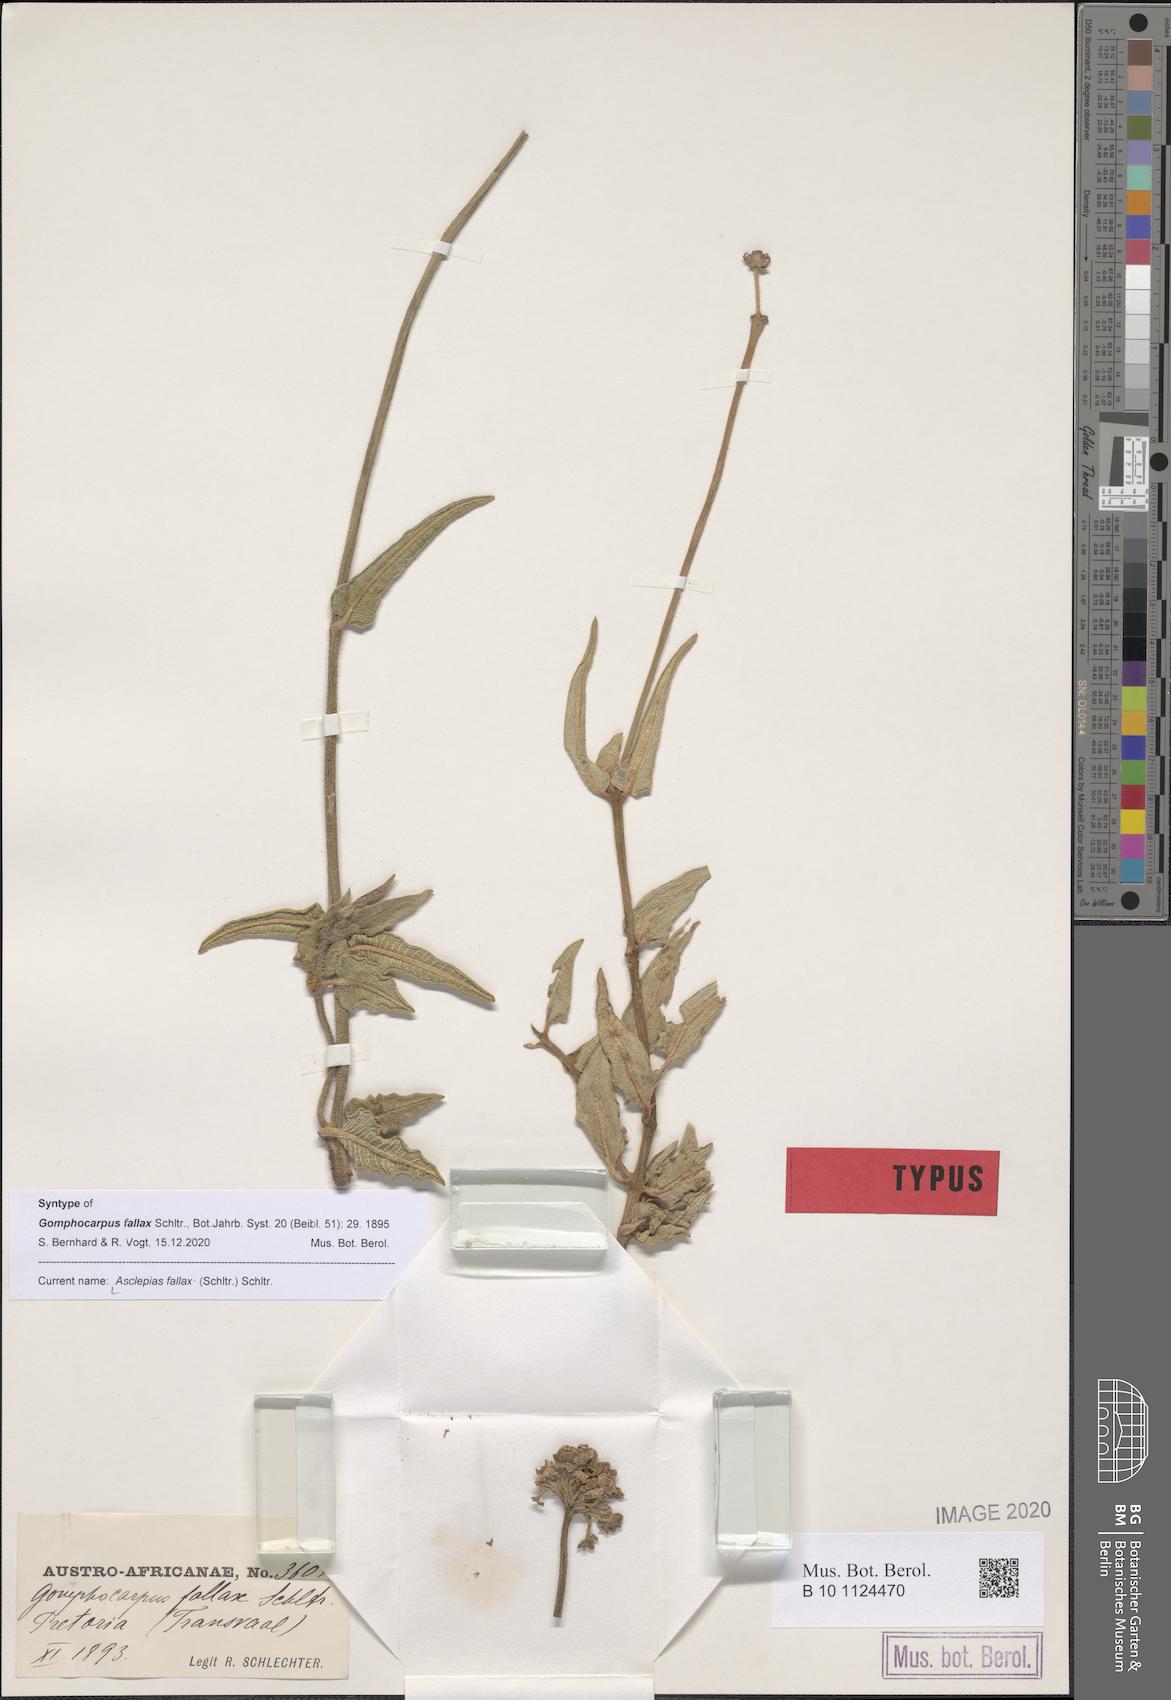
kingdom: Plantae
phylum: Tracheophyta
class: Magnoliopsida
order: Gentianales
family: Apocynaceae
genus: Asclepias
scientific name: Asclepias fallax
